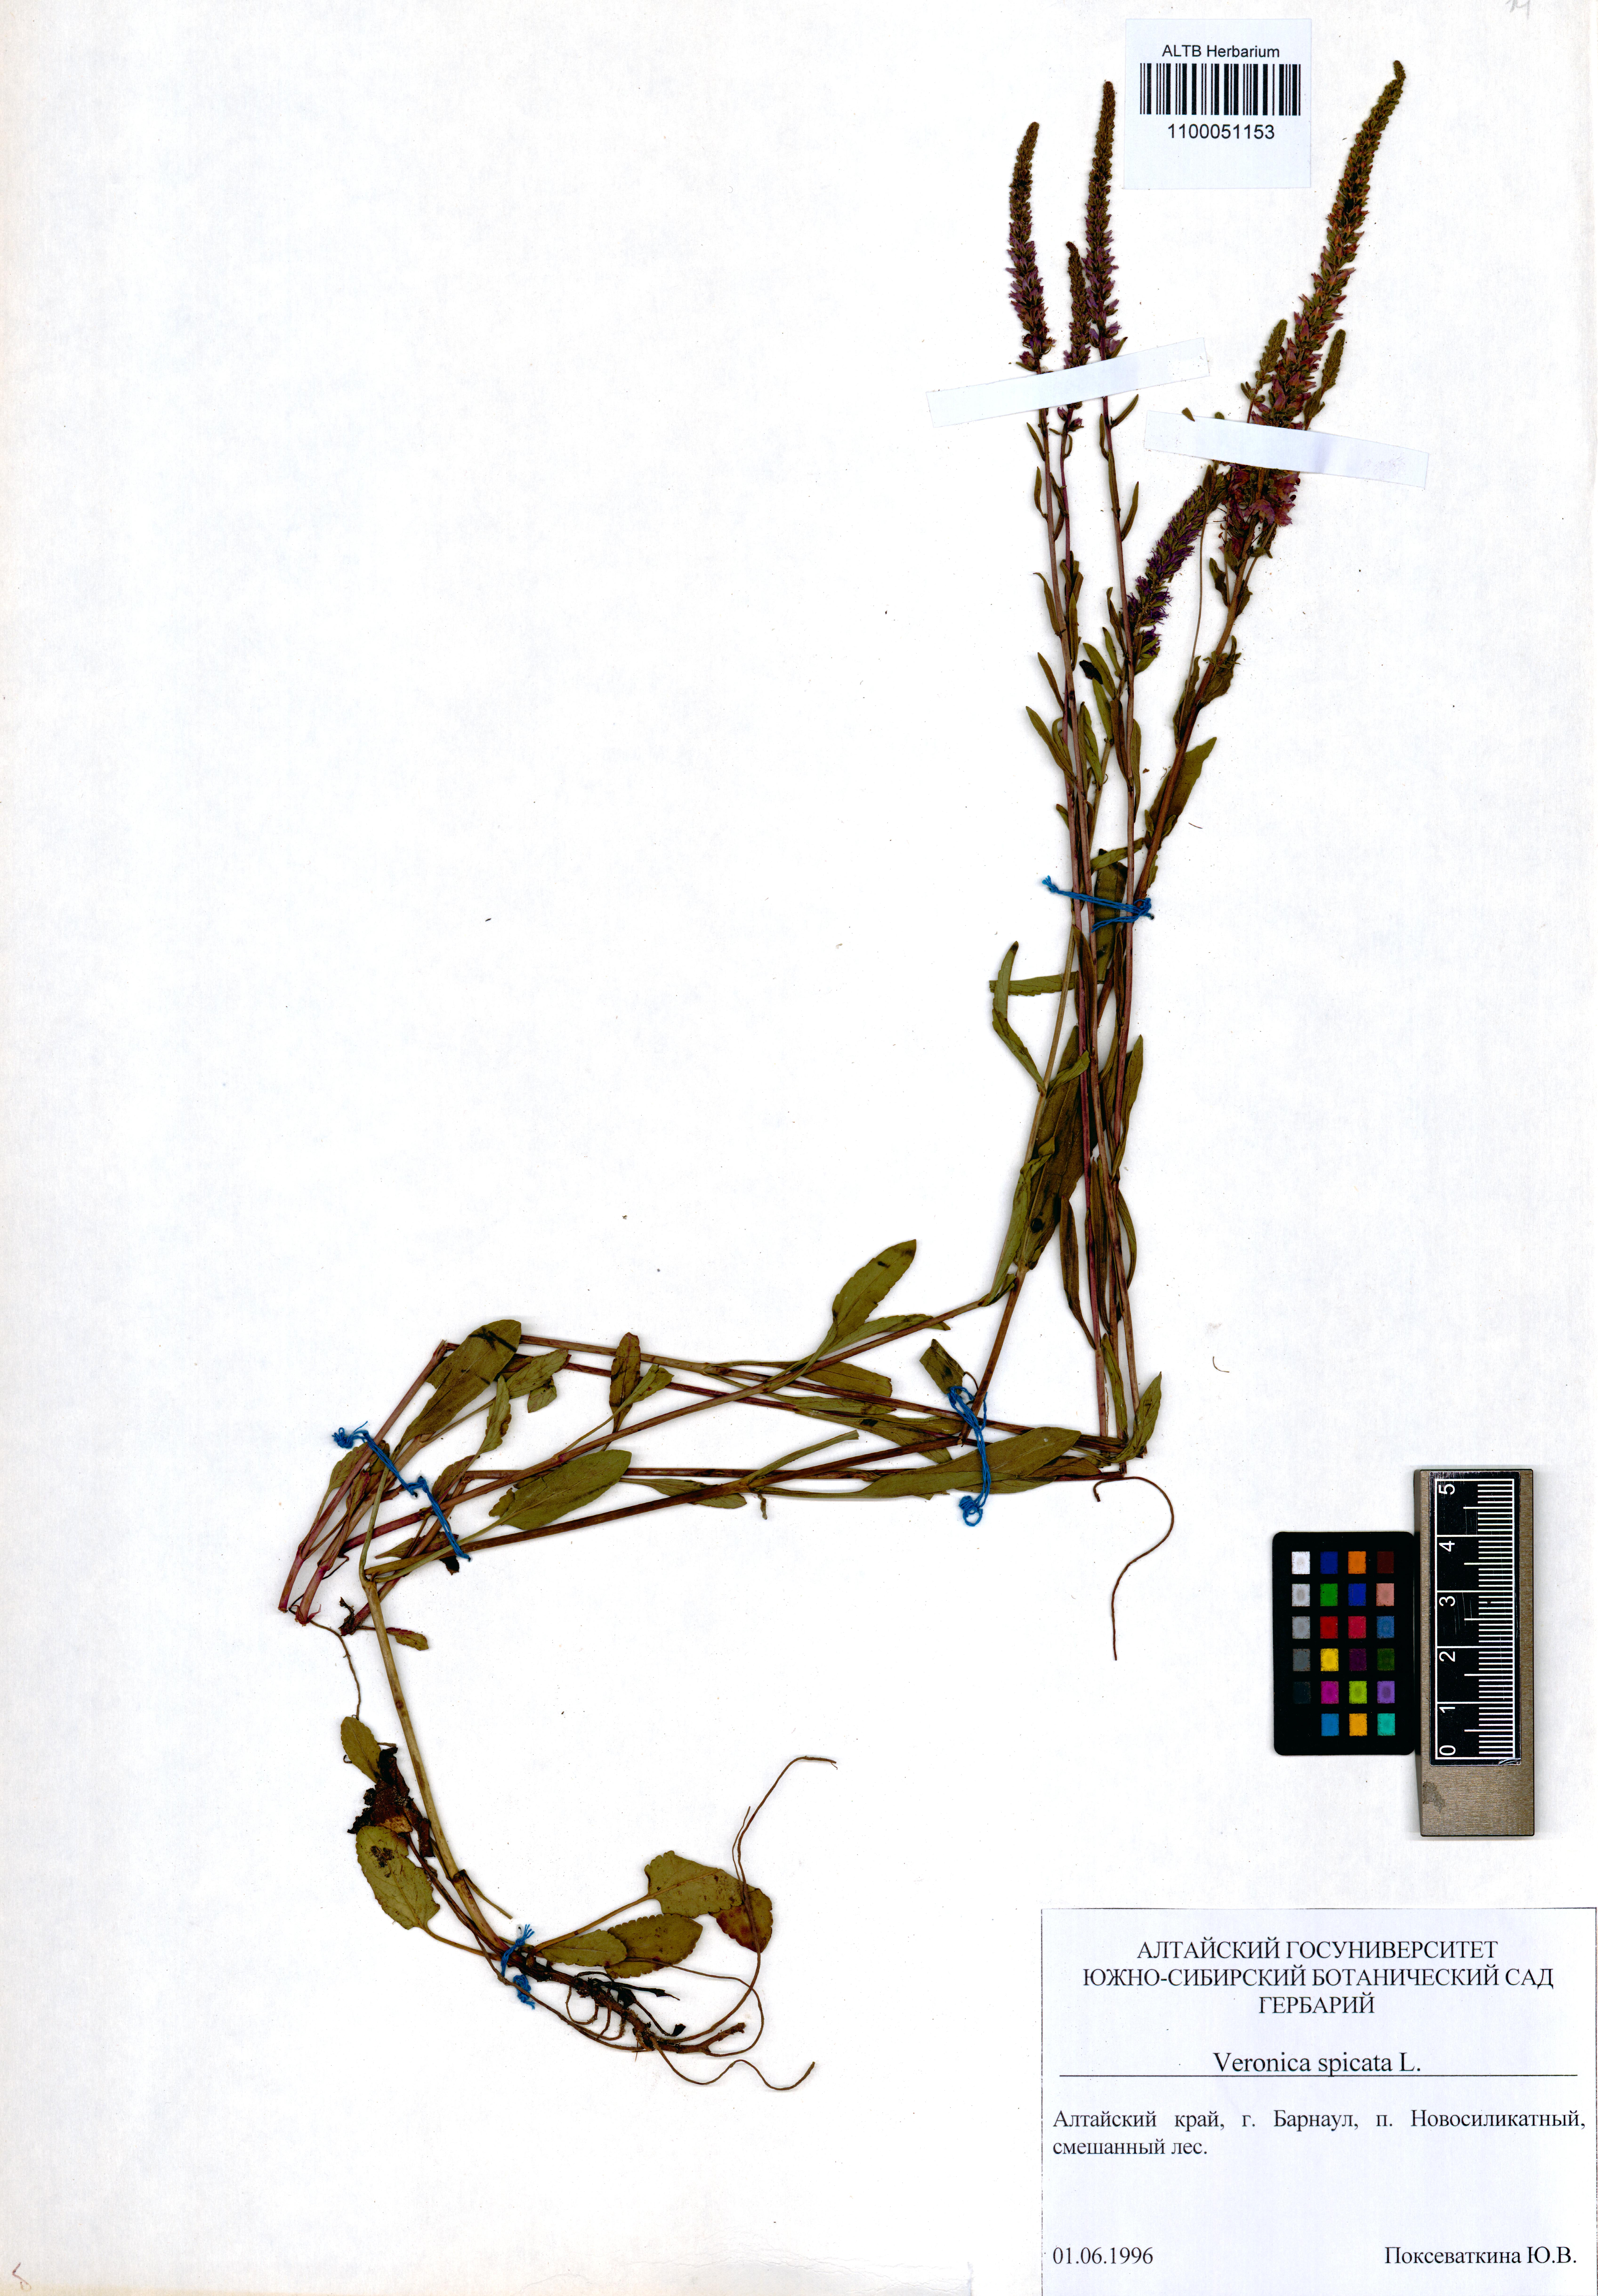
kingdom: Plantae
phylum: Tracheophyta
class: Magnoliopsida
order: Lamiales
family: Plantaginaceae
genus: Veronica
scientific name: Veronica spicata
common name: Spiked speedwell
